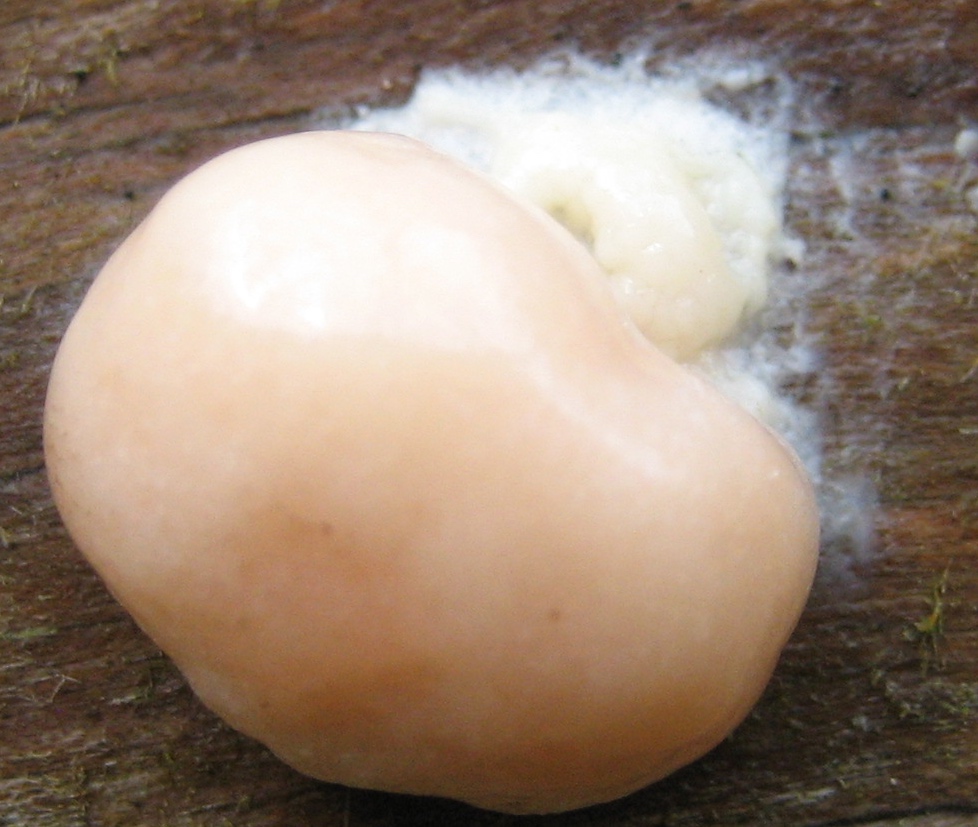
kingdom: Protozoa
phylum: Mycetozoa
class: Myxomycetes
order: Cribrariales
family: Tubiferaceae
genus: Reticularia
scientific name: Reticularia lycoperdon
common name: skinnende støvpude
